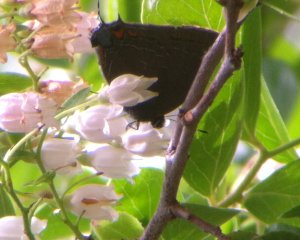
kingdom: Animalia
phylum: Arthropoda
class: Insecta
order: Lepidoptera
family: Lycaenidae
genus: Satyrium
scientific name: Satyrium calanus
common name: Banded Hairstreak
